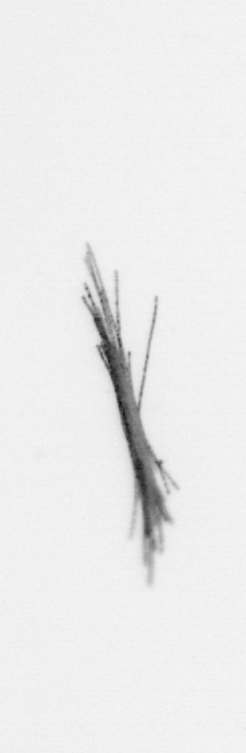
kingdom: Bacteria
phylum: Cyanobacteria
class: Cyanobacteriia
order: Cyanobacteriales
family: Microcoleaceae
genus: Trichodesmium
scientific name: Trichodesmium
